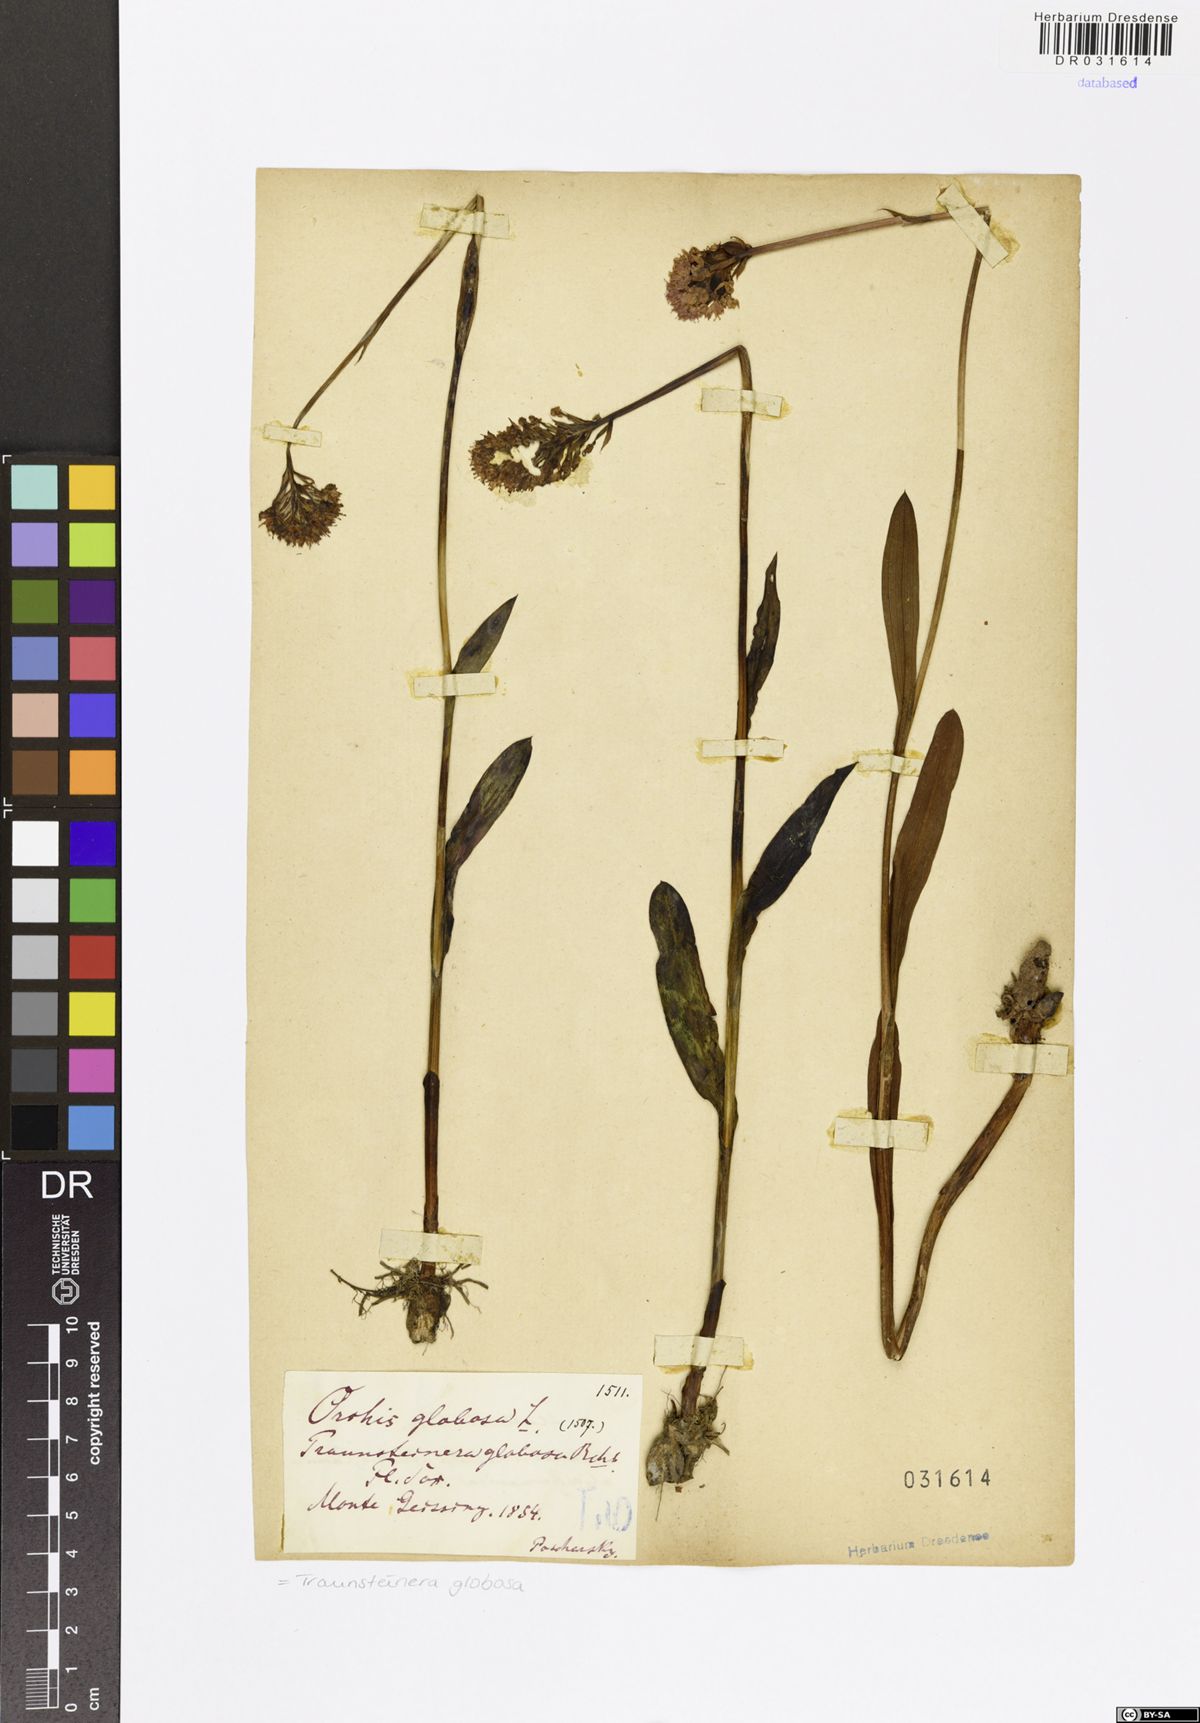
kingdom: Plantae
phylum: Tracheophyta
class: Liliopsida
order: Asparagales
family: Orchidaceae
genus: Traunsteinera
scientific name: Traunsteinera globosa
